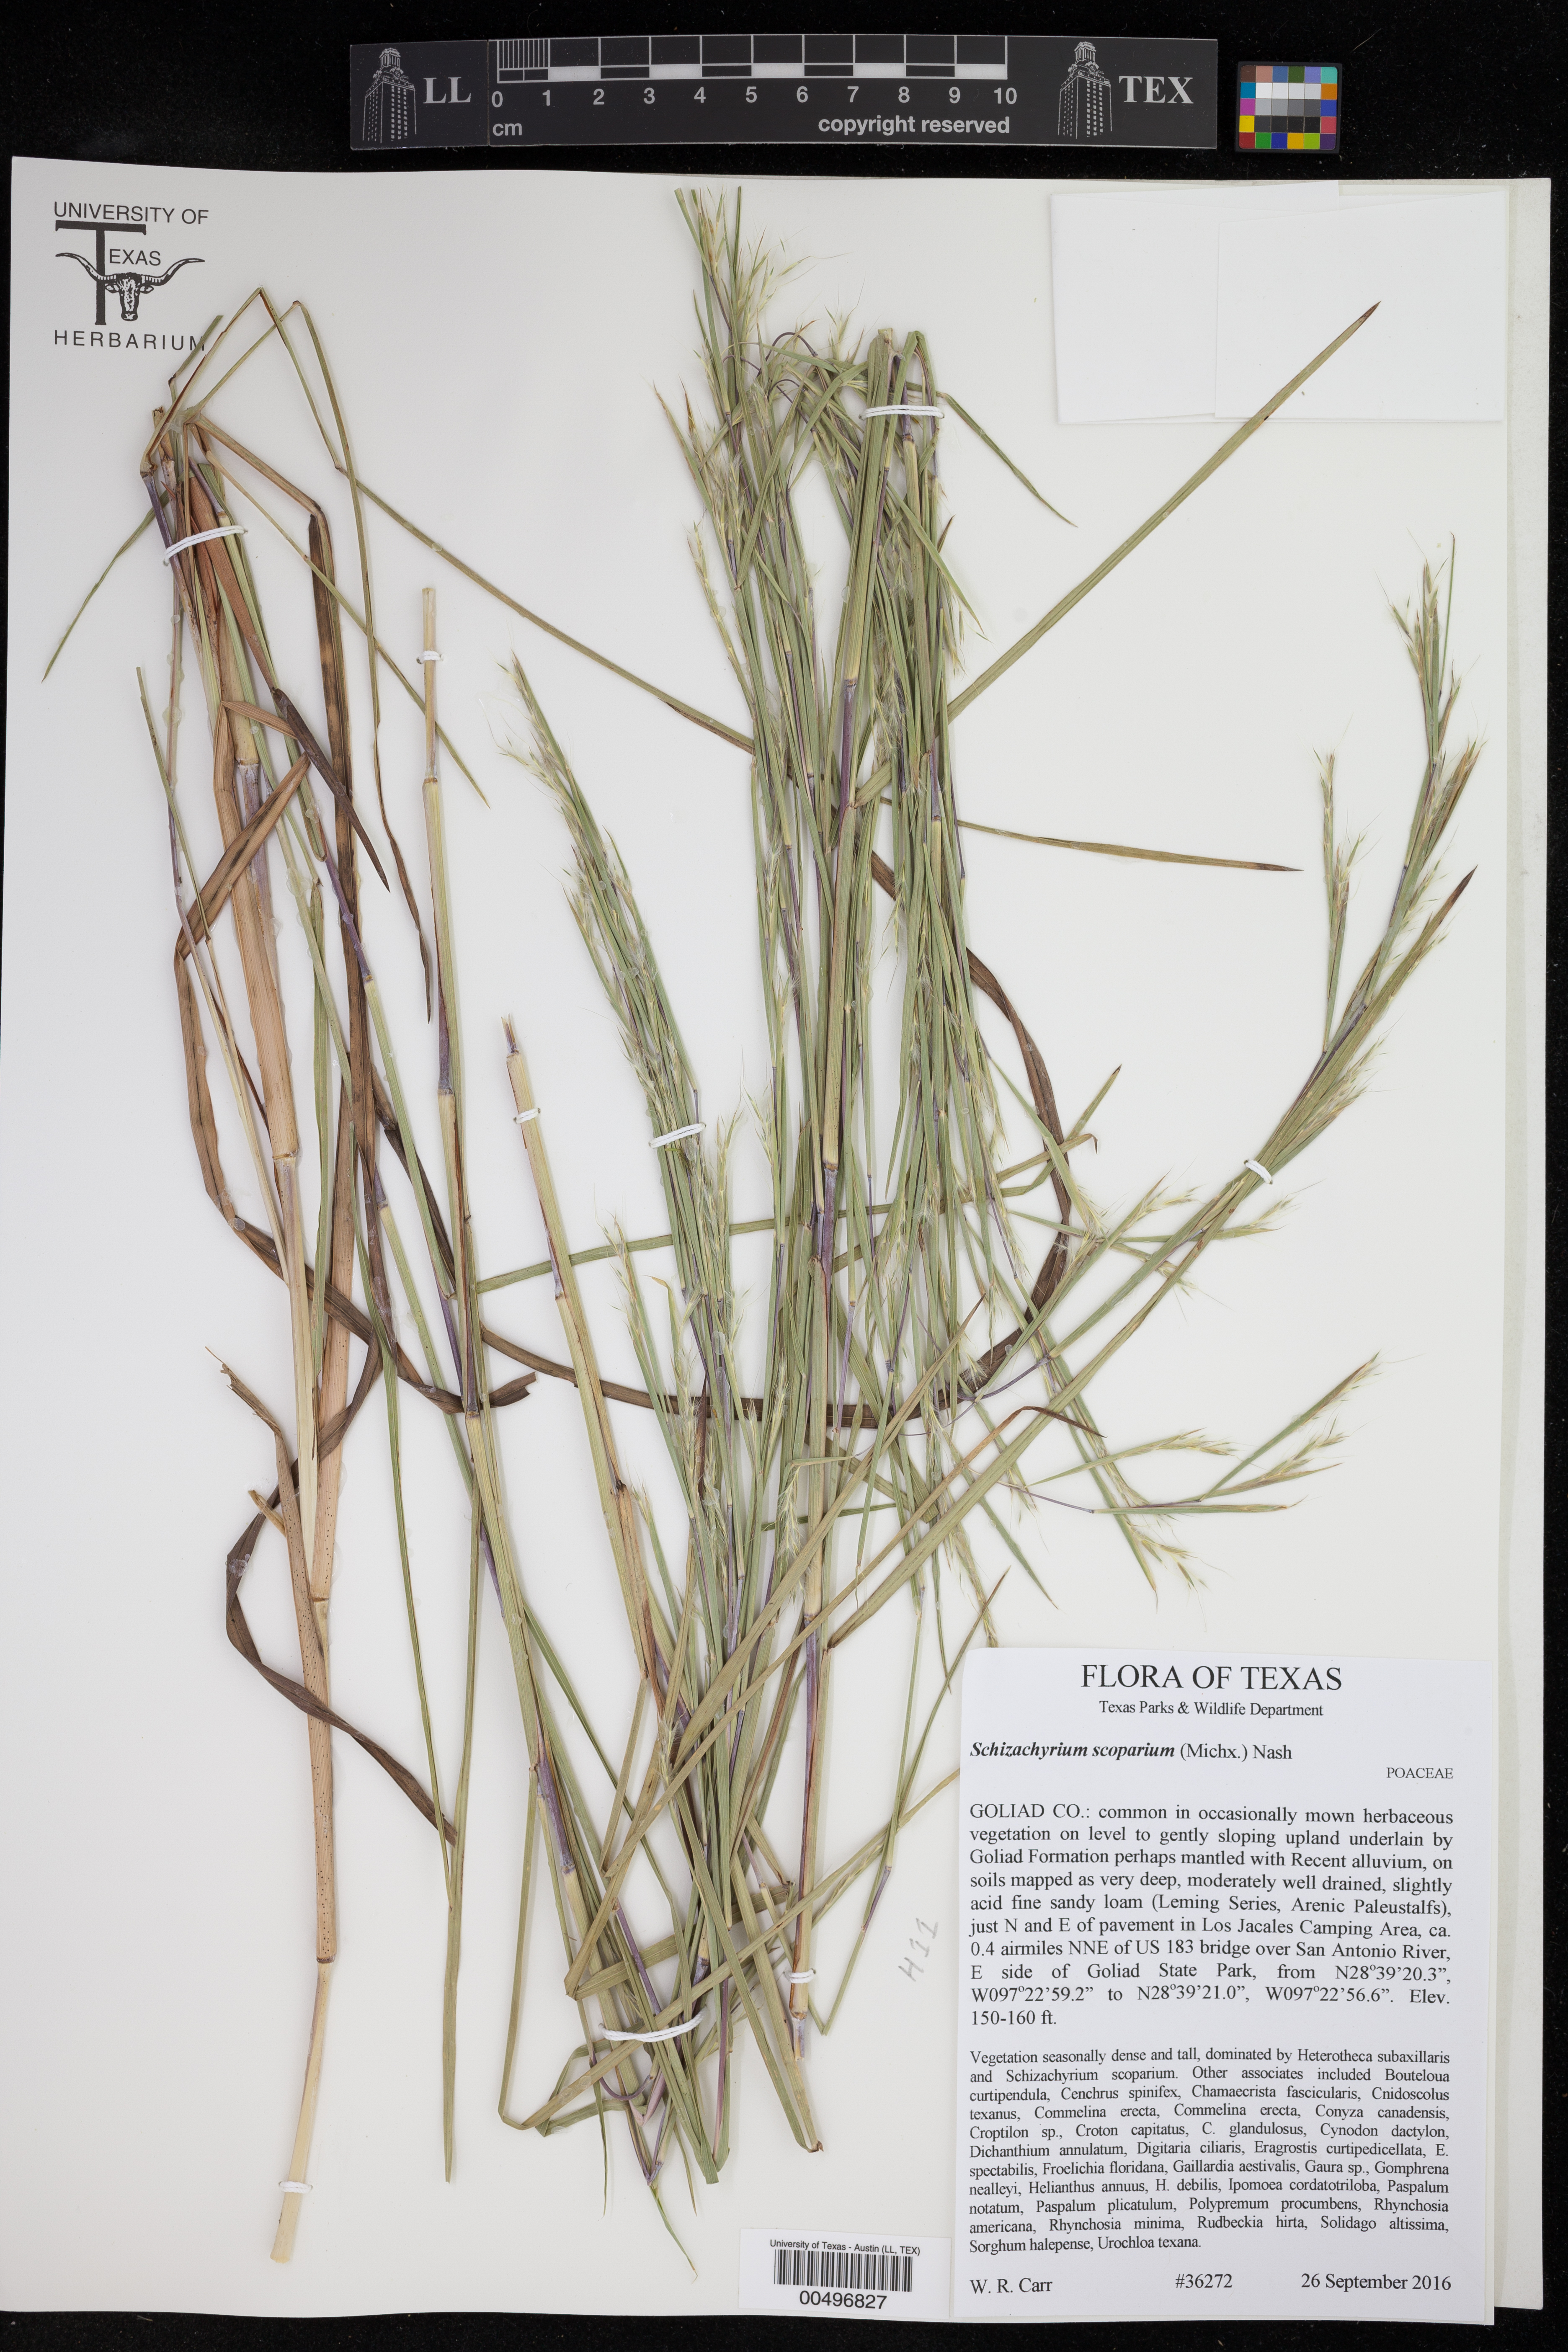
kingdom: Plantae
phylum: Tracheophyta
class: Liliopsida
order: Poales
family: Poaceae
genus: Schizachyrium
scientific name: Schizachyrium scoparium
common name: Little bluestem
